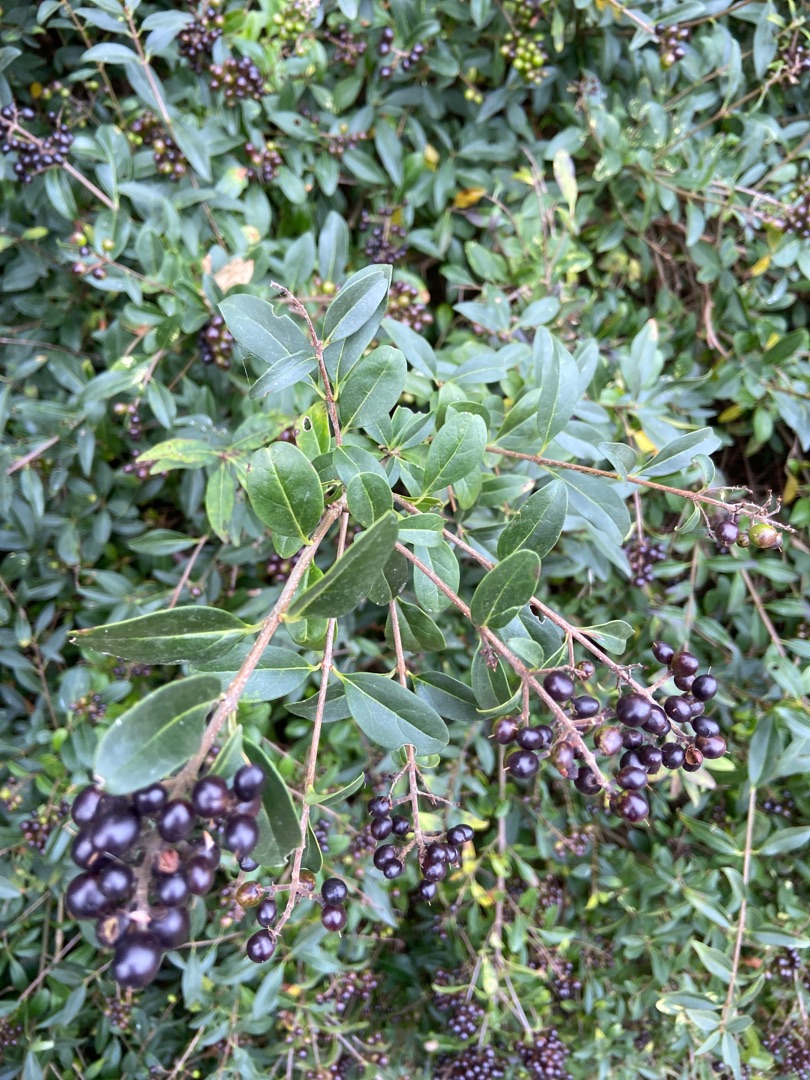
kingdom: Plantae
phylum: Tracheophyta
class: Magnoliopsida
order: Lamiales
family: Oleaceae
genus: Ligustrum
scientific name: Ligustrum vulgare
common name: Liguster
